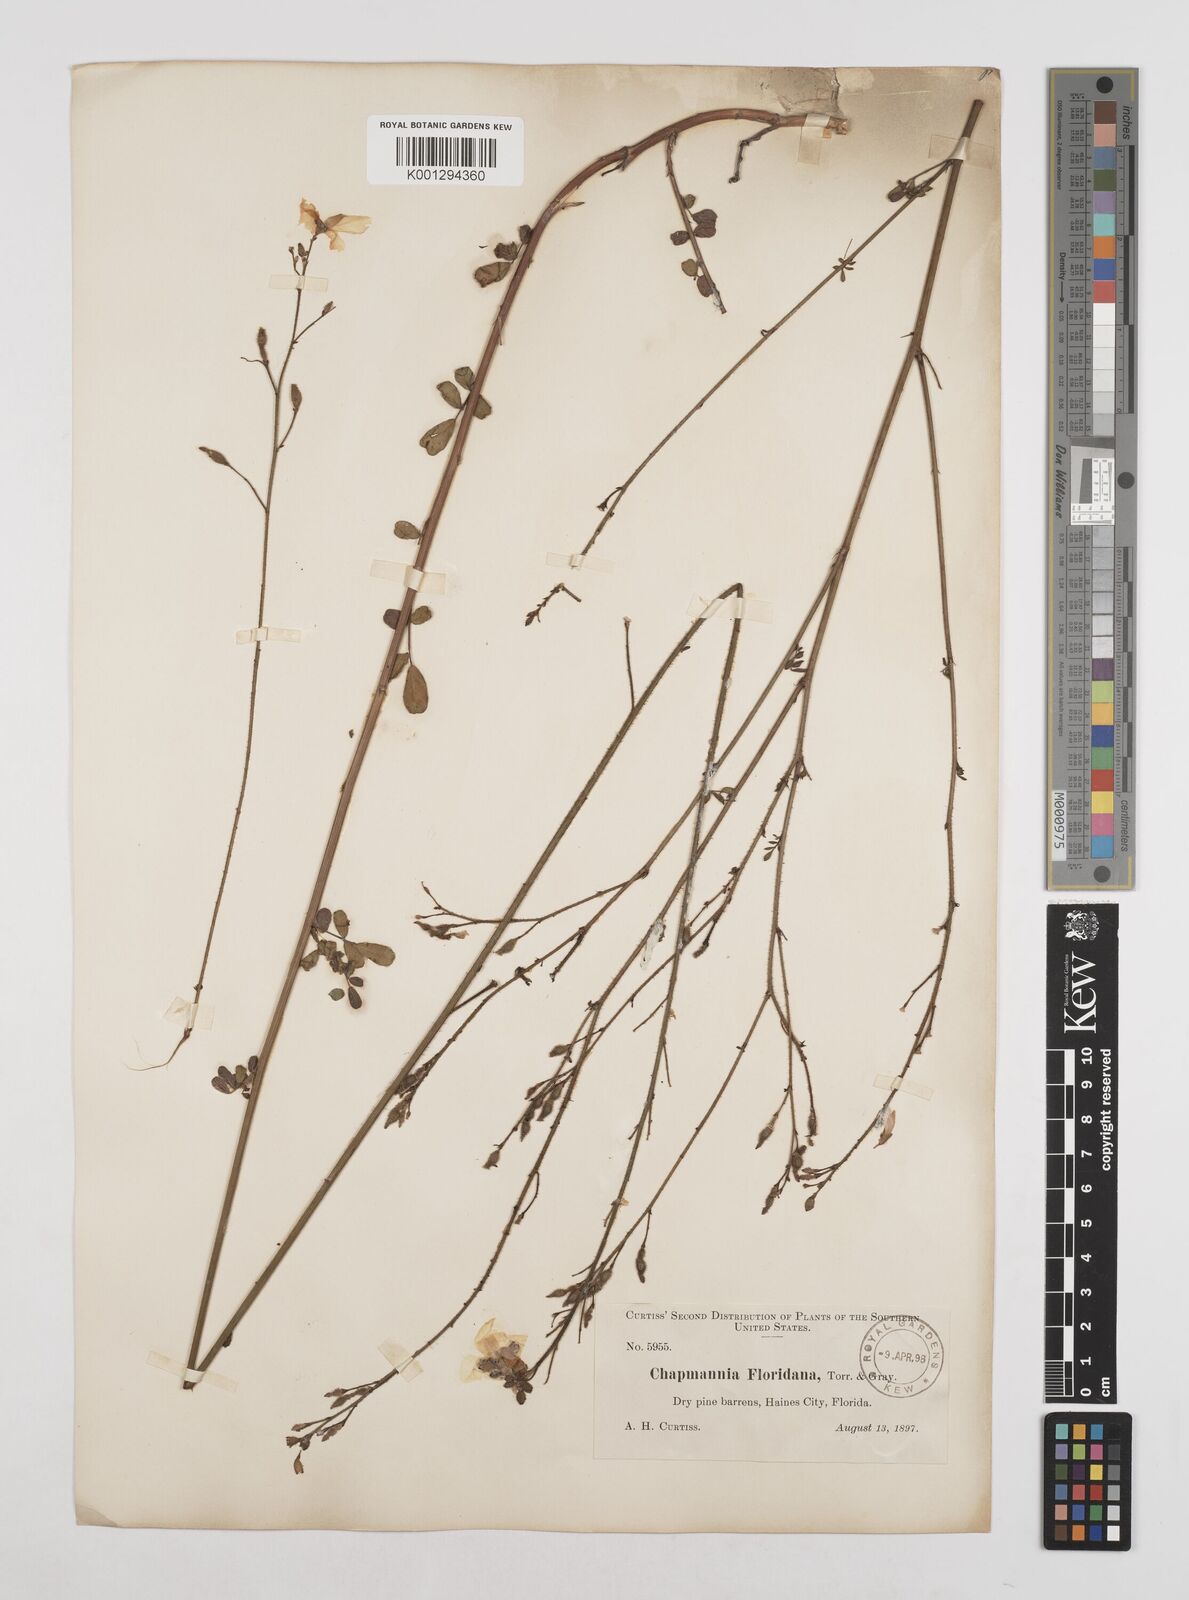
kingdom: Plantae
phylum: Tracheophyta
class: Magnoliopsida
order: Fabales
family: Fabaceae
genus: Chapmannia
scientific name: Chapmannia floridana
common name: Alicia
